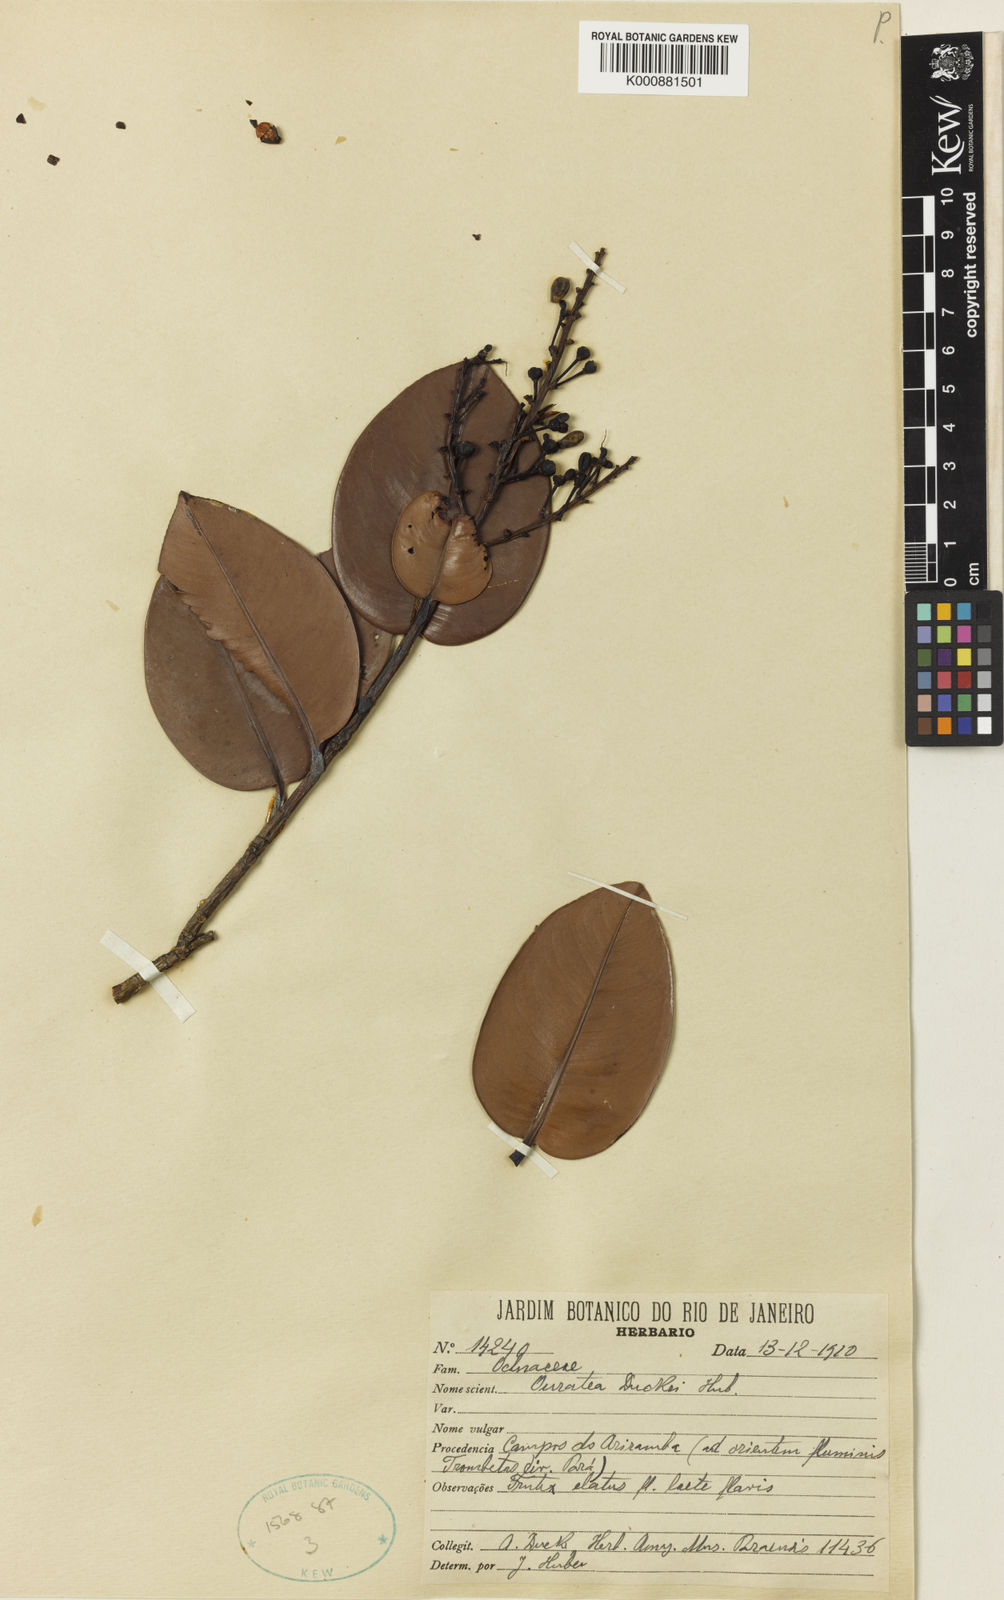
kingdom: Plantae
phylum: Tracheophyta
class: Magnoliopsida
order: Malpighiales
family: Ochnaceae
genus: Ouratea
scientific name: Ouratea duckei
